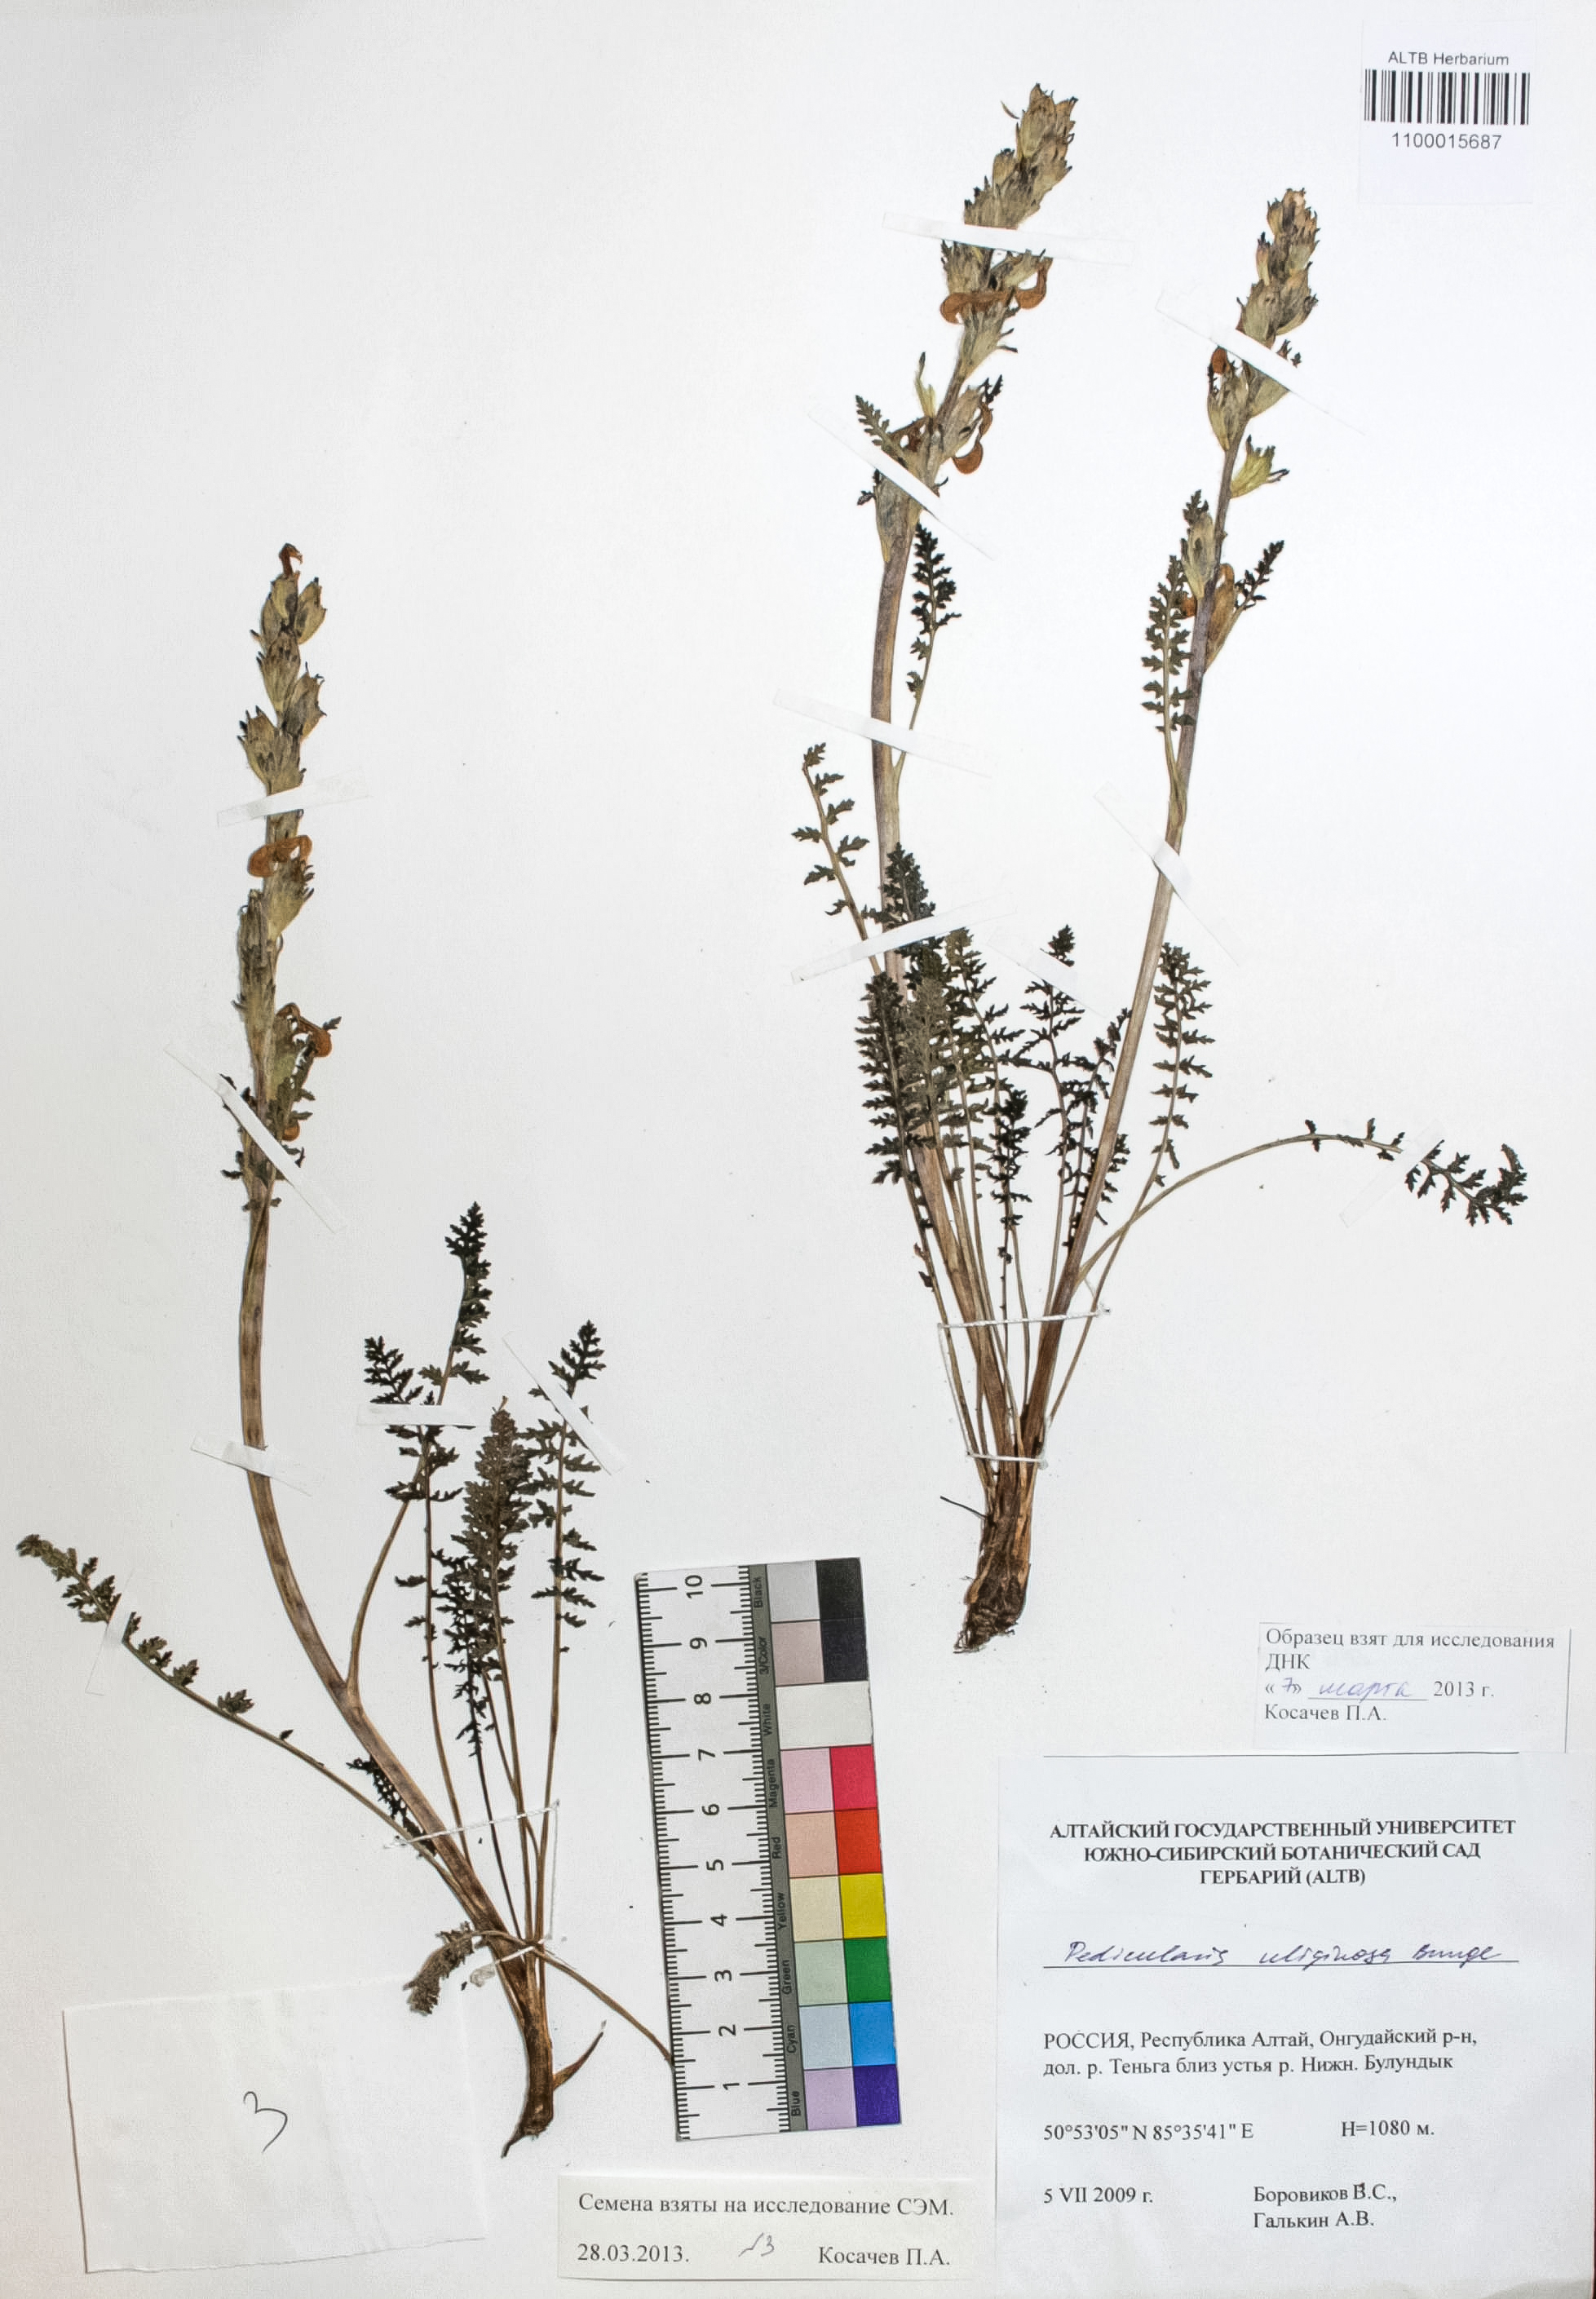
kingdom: Plantae
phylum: Tracheophyta
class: Magnoliopsida
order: Lamiales
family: Orobanchaceae
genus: Pedicularis
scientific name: Pedicularis uliginosa
